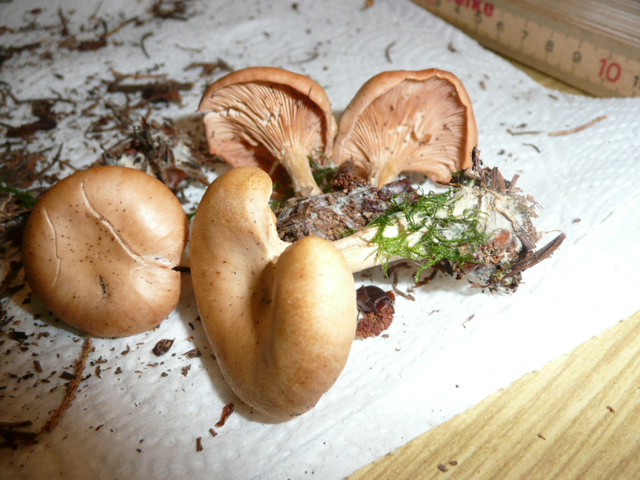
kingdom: Fungi
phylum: Basidiomycota
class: Agaricomycetes
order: Agaricales
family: Tricholomataceae
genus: Infundibulicybe
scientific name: Infundibulicybe gibba
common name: almindelig tragthat
